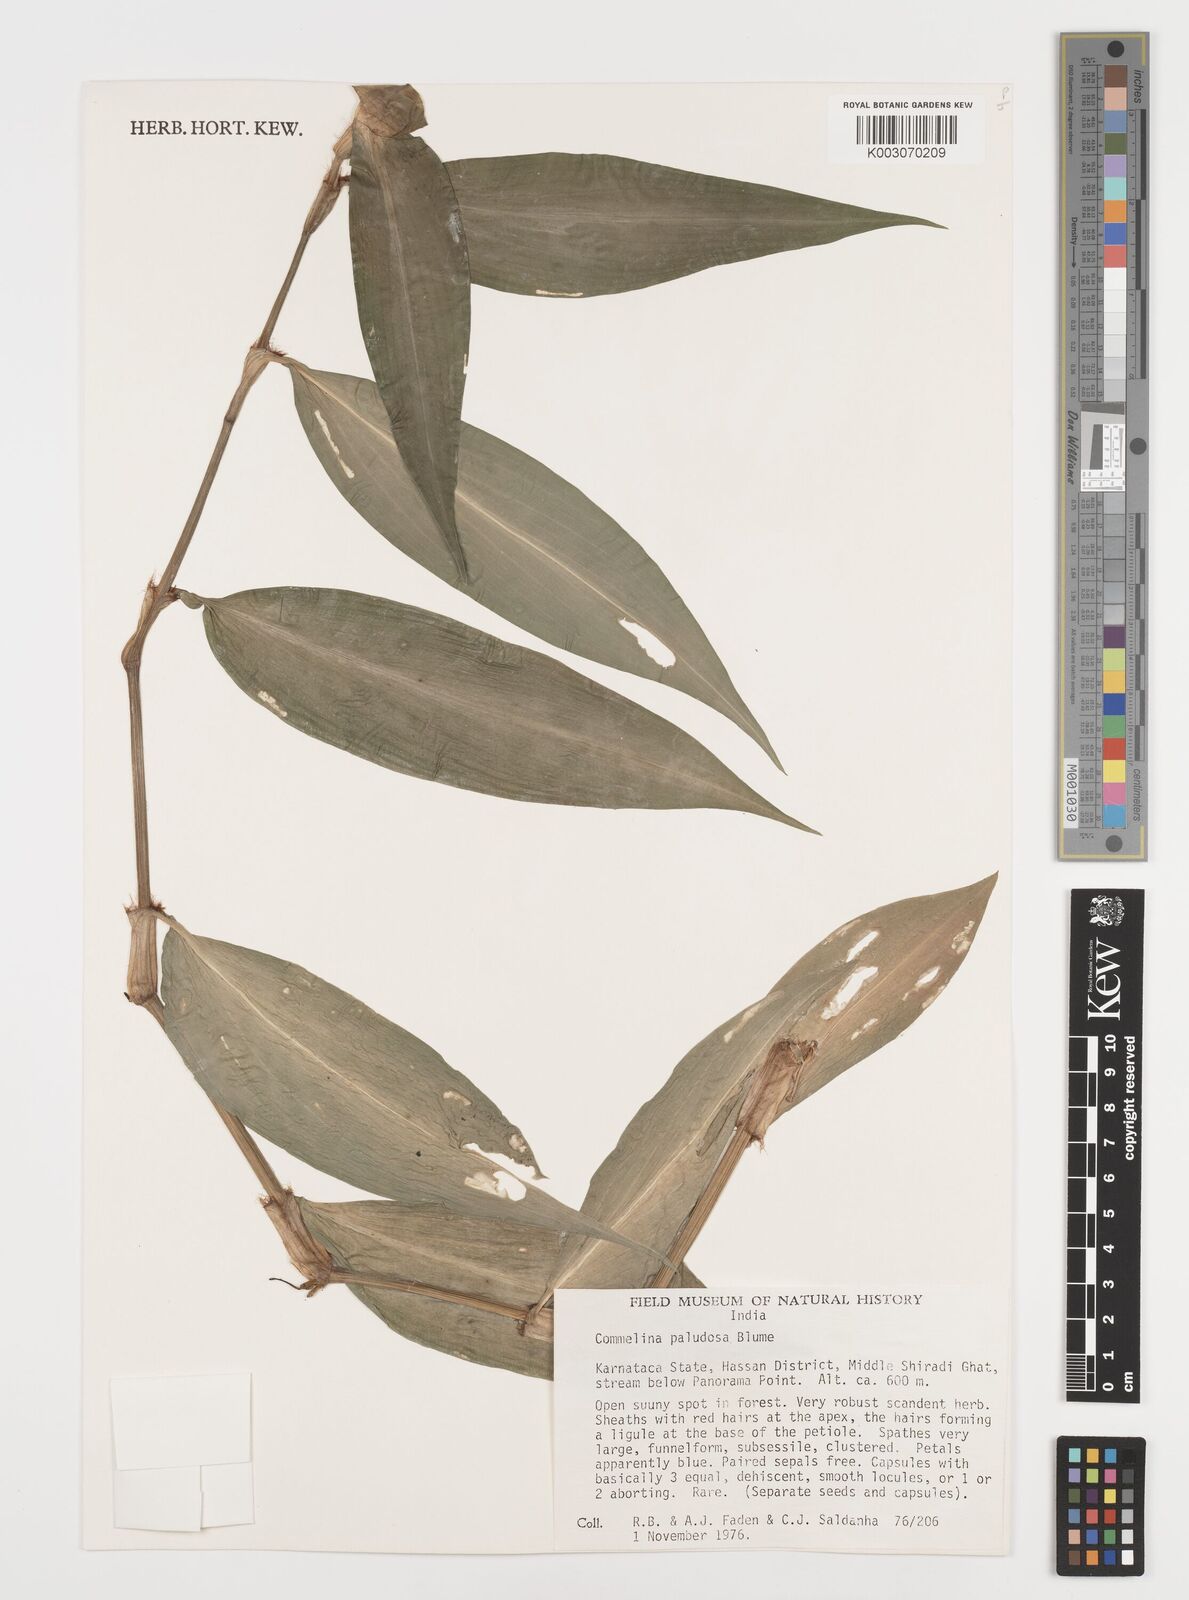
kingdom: Plantae
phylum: Tracheophyta
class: Liliopsida
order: Commelinales
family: Commelinaceae
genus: Commelina
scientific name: Commelina paludosa
